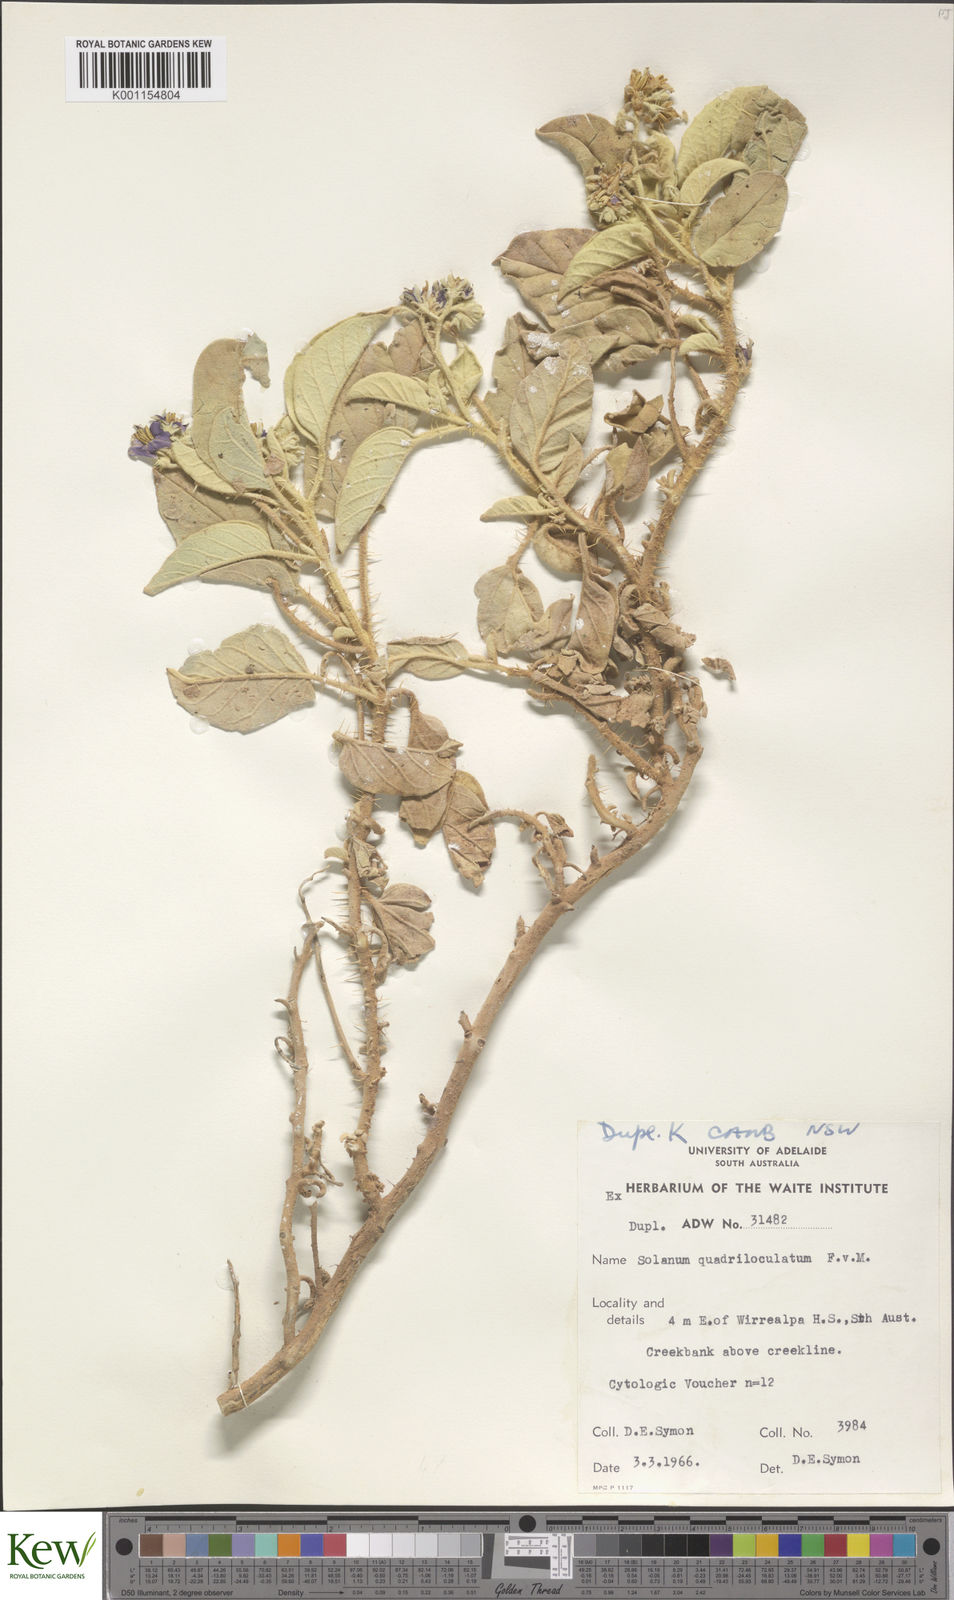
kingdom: Plantae
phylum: Tracheophyta
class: Magnoliopsida
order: Solanales
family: Solanaceae
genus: Solanum
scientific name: Solanum quadriloculatum
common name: Wild tomato
